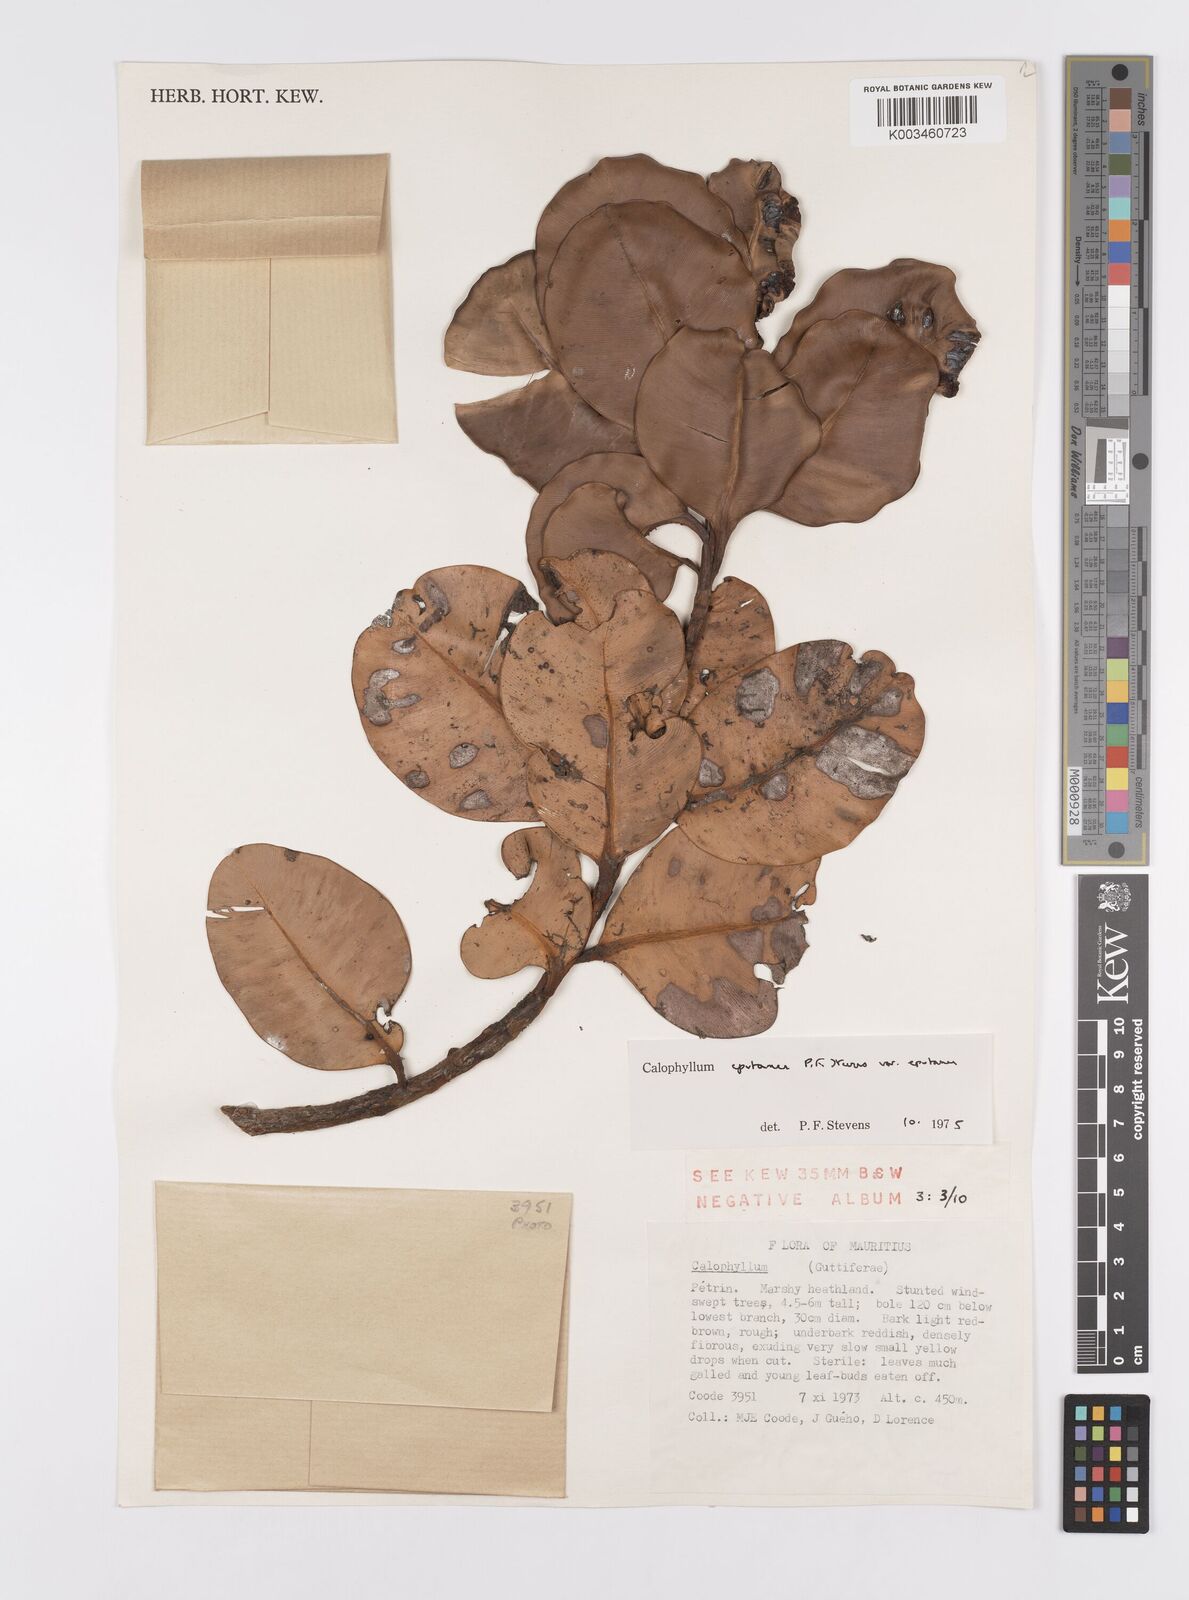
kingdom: Plantae
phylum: Tracheophyta
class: Magnoliopsida
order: Malpighiales
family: Calophyllaceae
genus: Calophyllum
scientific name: Calophyllum eputamen
